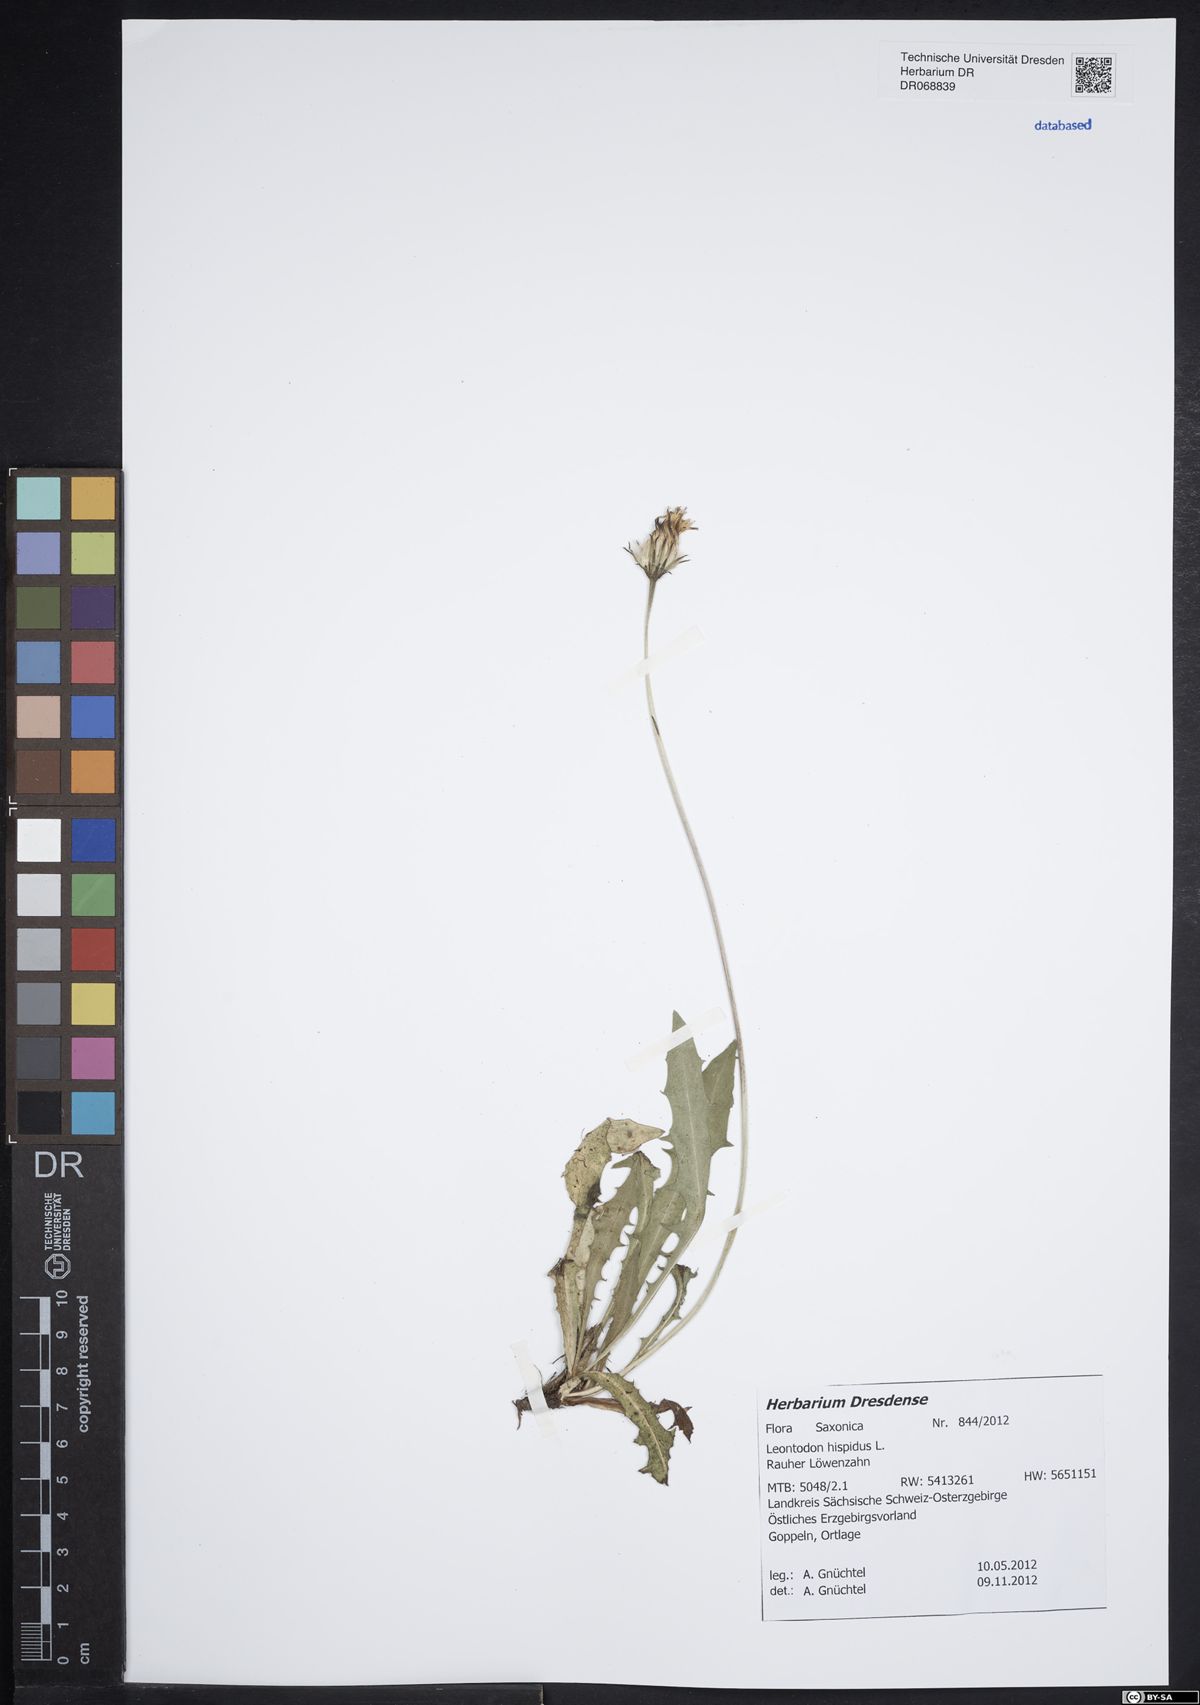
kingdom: Plantae
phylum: Tracheophyta
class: Magnoliopsida
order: Asterales
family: Asteraceae
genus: Leontodon
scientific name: Leontodon hispidus
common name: Rough hawkbit
